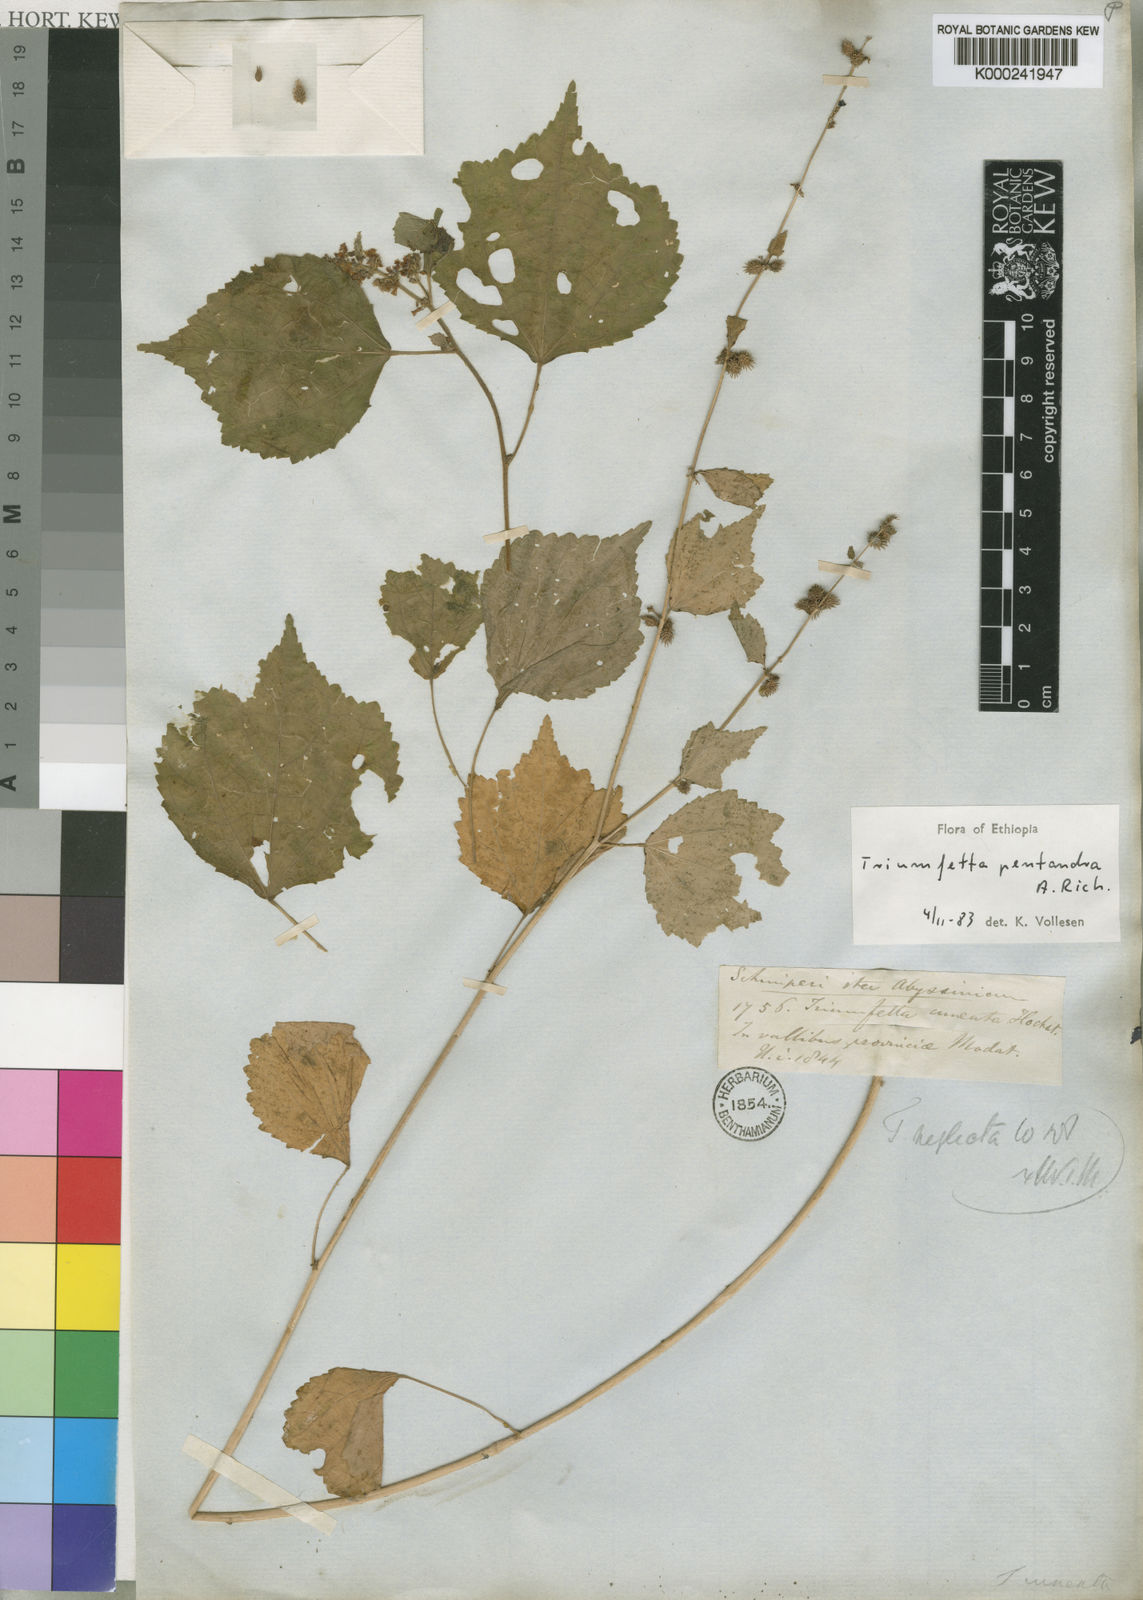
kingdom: Plantae
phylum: Tracheophyta
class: Magnoliopsida
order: Malvales
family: Malvaceae
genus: Triumfetta
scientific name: Triumfetta pentandra
